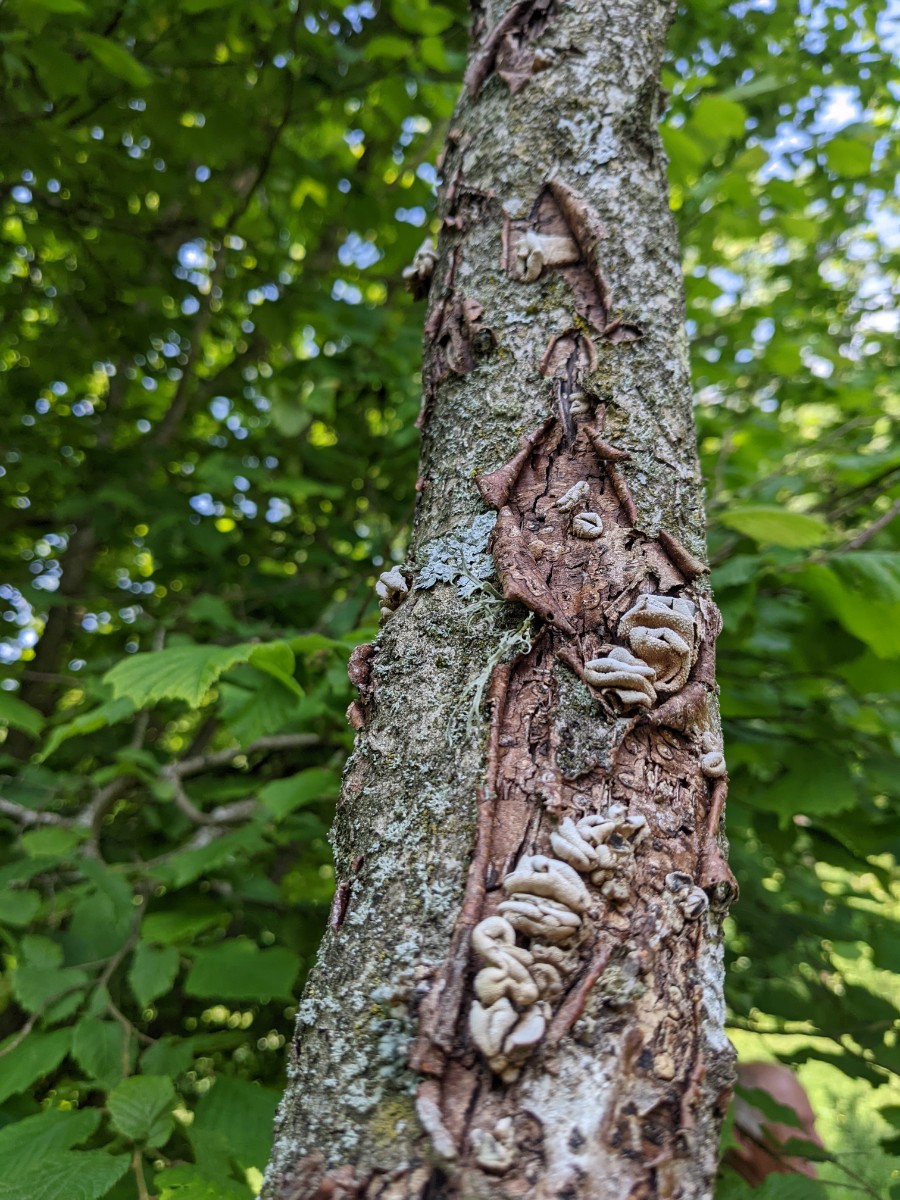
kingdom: Fungi
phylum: Ascomycota
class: Leotiomycetes
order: Helotiales
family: Cenangiaceae
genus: Encoelia
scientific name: Encoelia furfuracea
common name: hassel-læderskive
